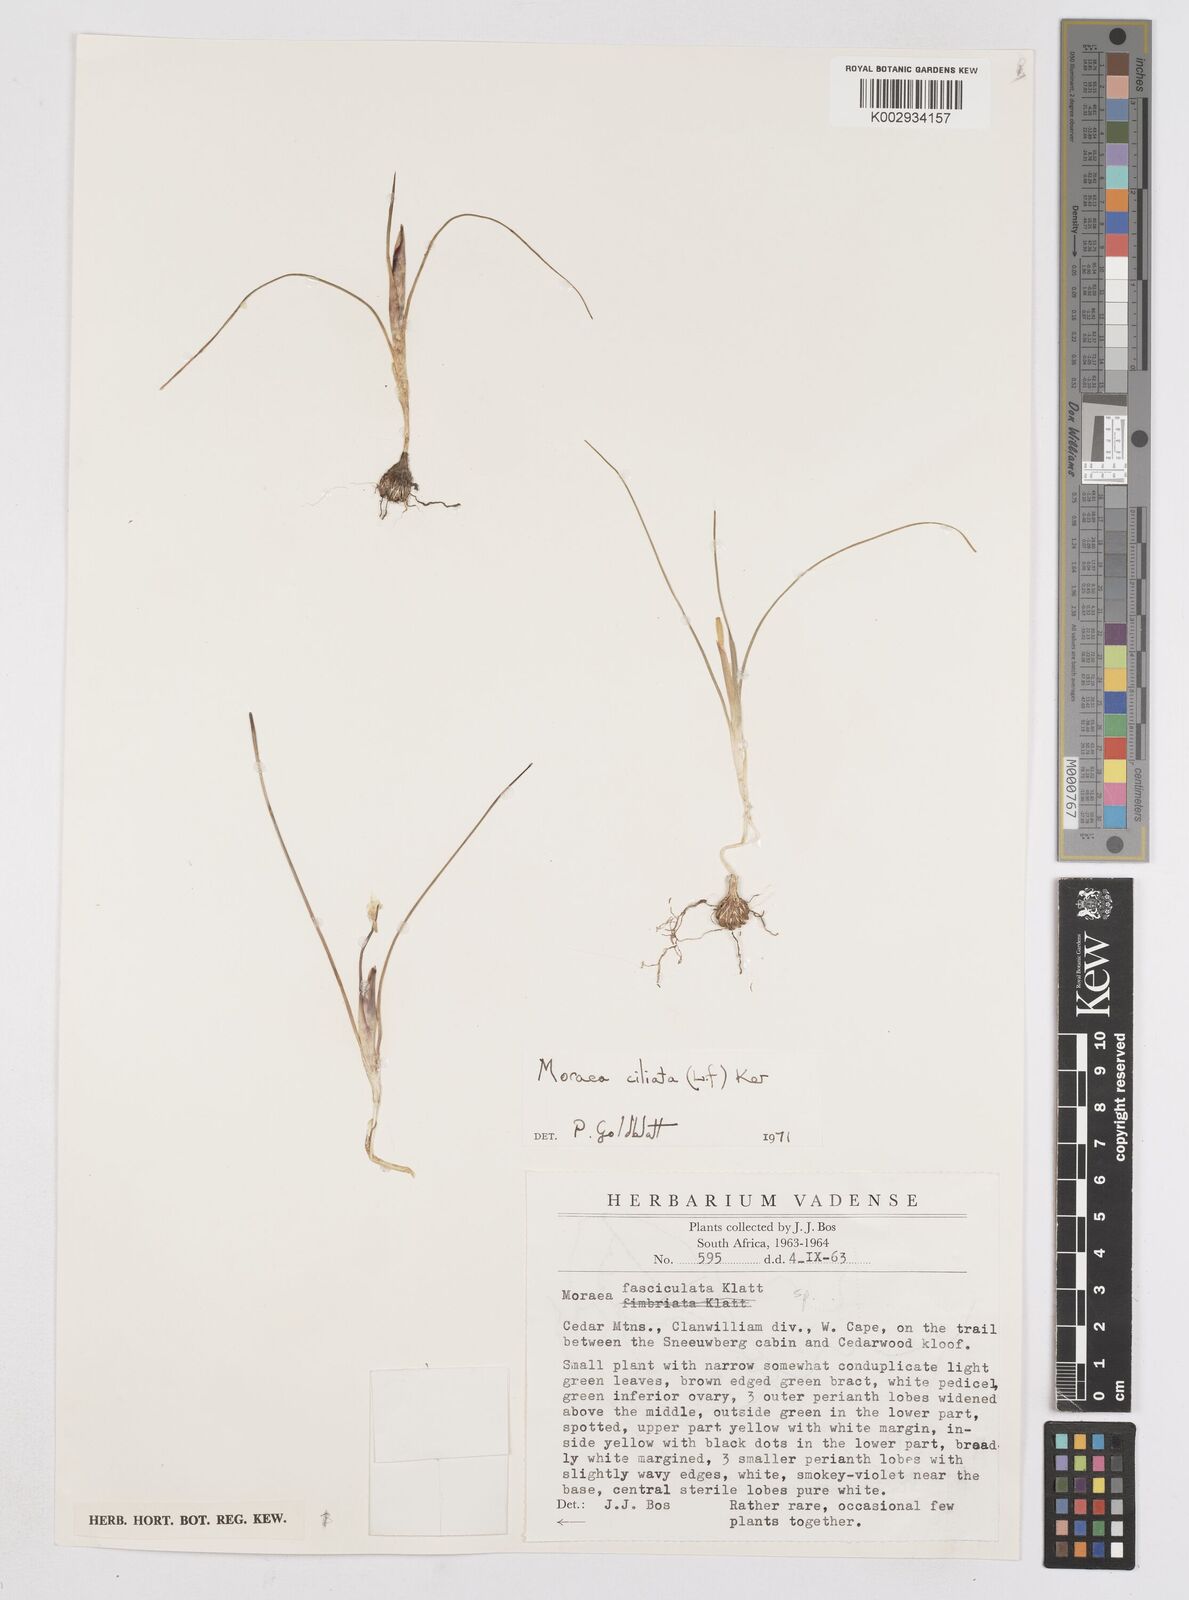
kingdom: Plantae
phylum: Tracheophyta
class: Liliopsida
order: Asparagales
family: Iridaceae
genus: Moraea
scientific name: Moraea ciliata
